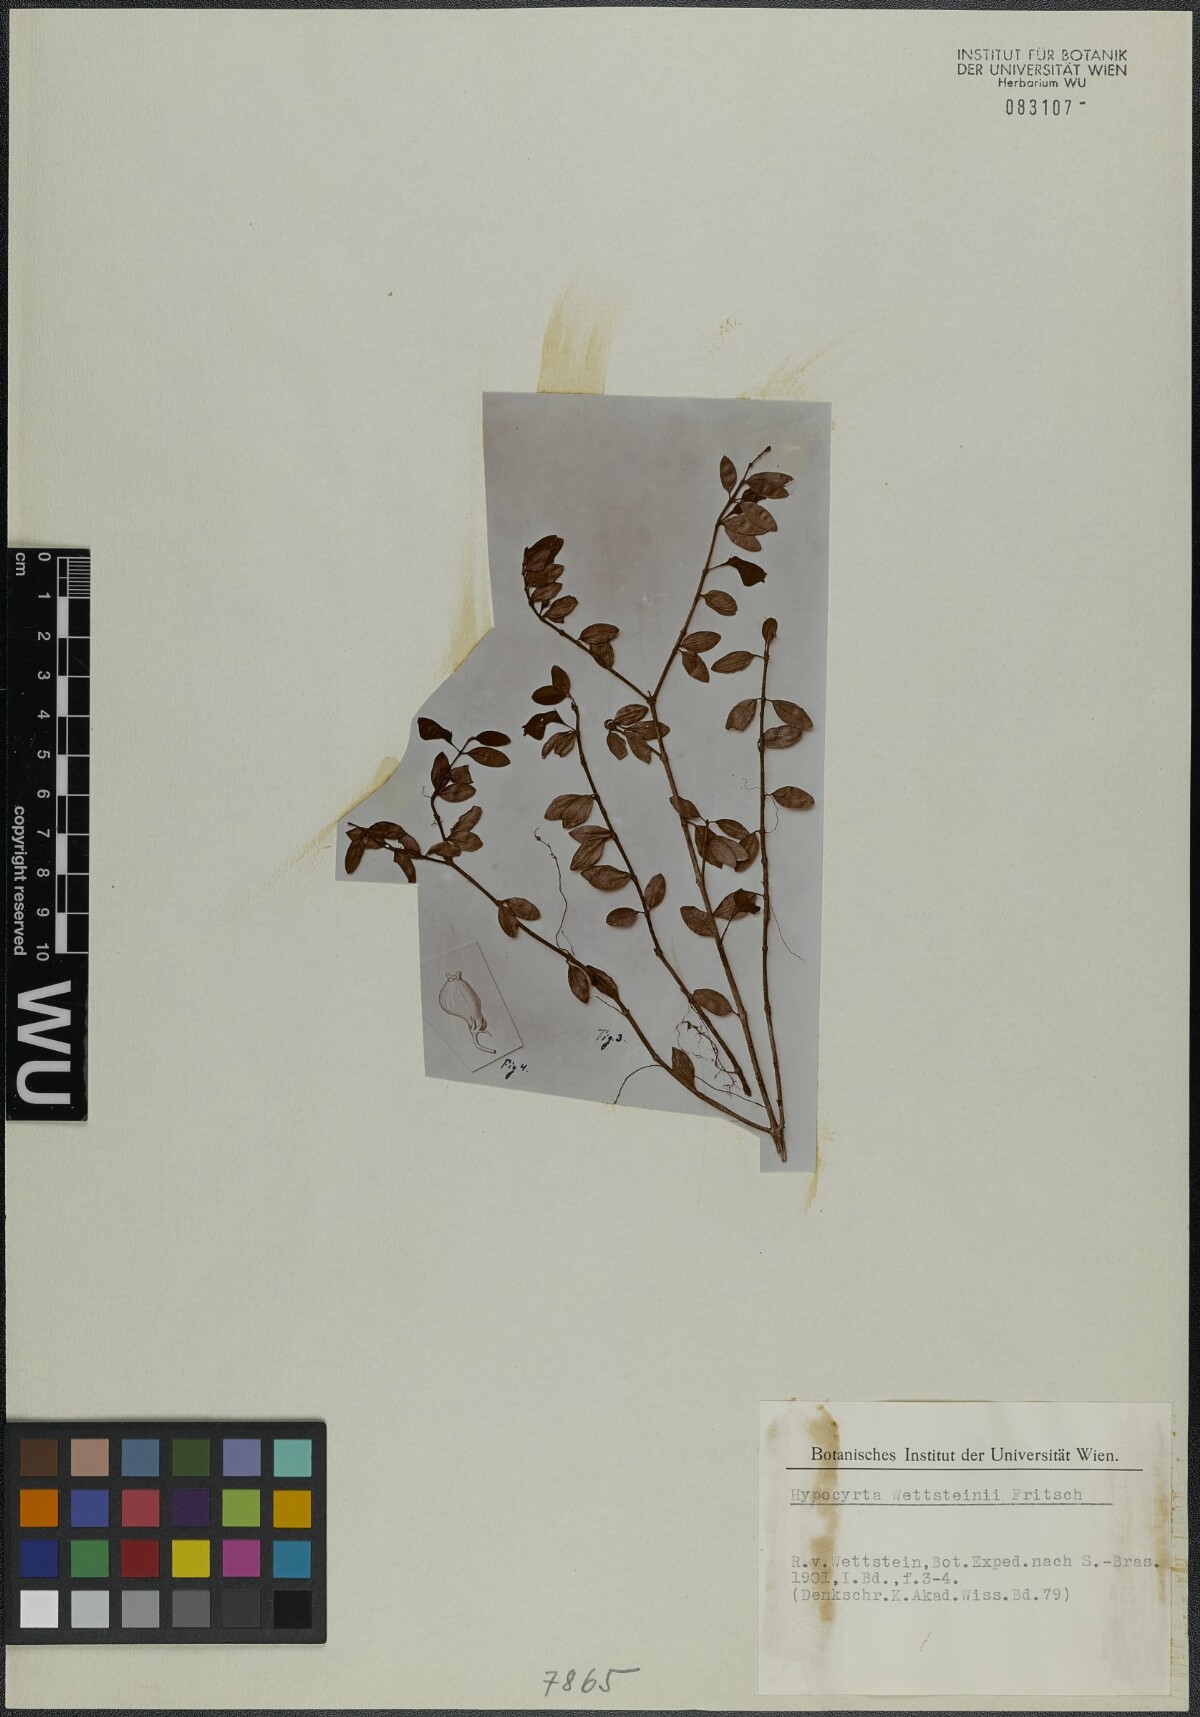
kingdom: Plantae
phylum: Tracheophyta
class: Magnoliopsida
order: Lamiales
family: Gesneriaceae
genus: Nematanthus
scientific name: Nematanthus wettsteinii
